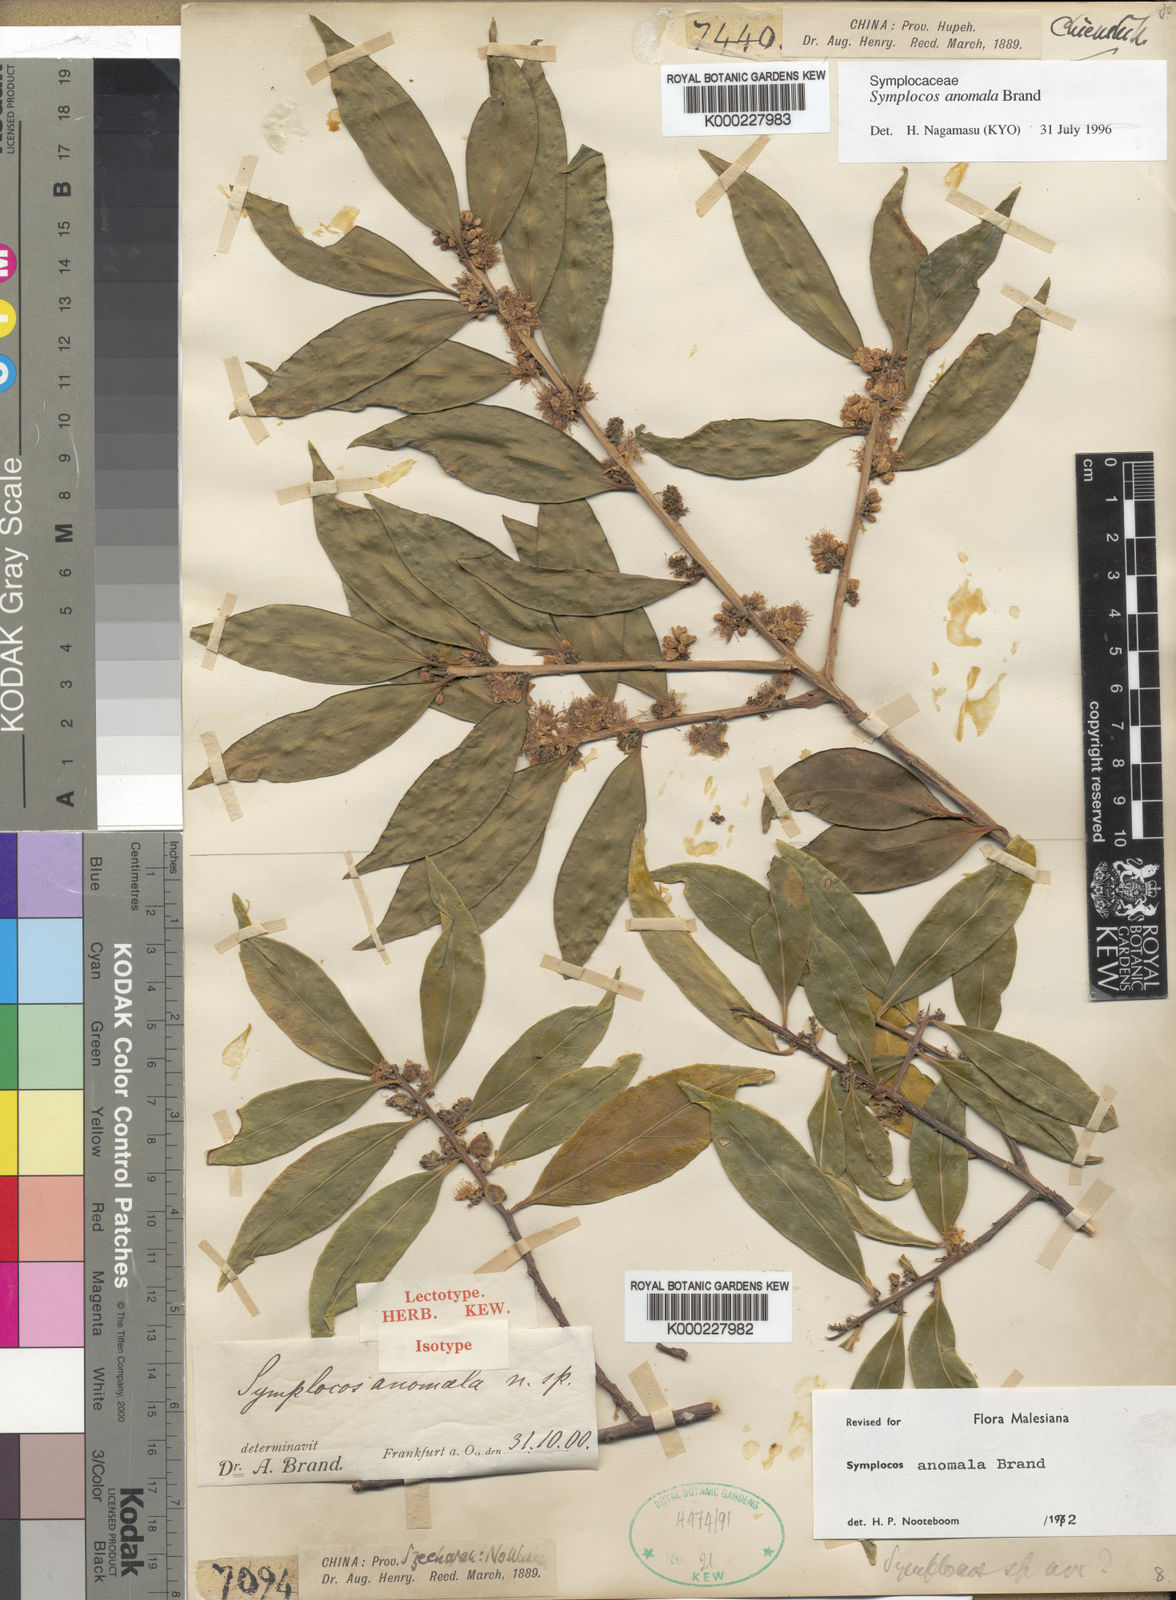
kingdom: Plantae
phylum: Tracheophyta
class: Magnoliopsida
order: Ericales
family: Symplocaceae
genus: Symplocos
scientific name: Symplocos anomala
